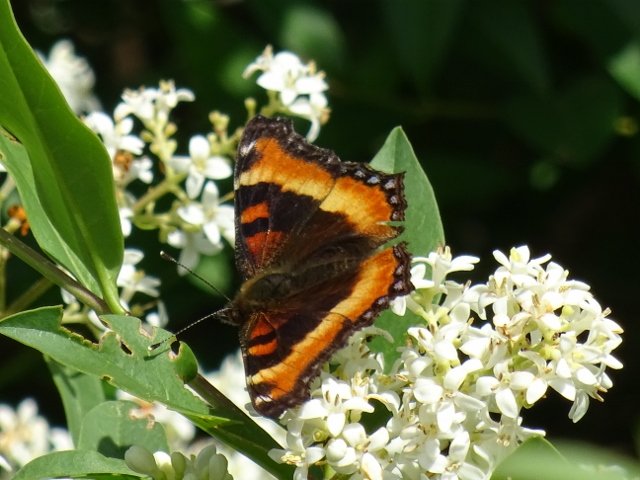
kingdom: Animalia
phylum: Arthropoda
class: Insecta
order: Lepidoptera
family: Nymphalidae
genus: Aglais
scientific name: Aglais milberti
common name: Milbert's Tortoiseshell
